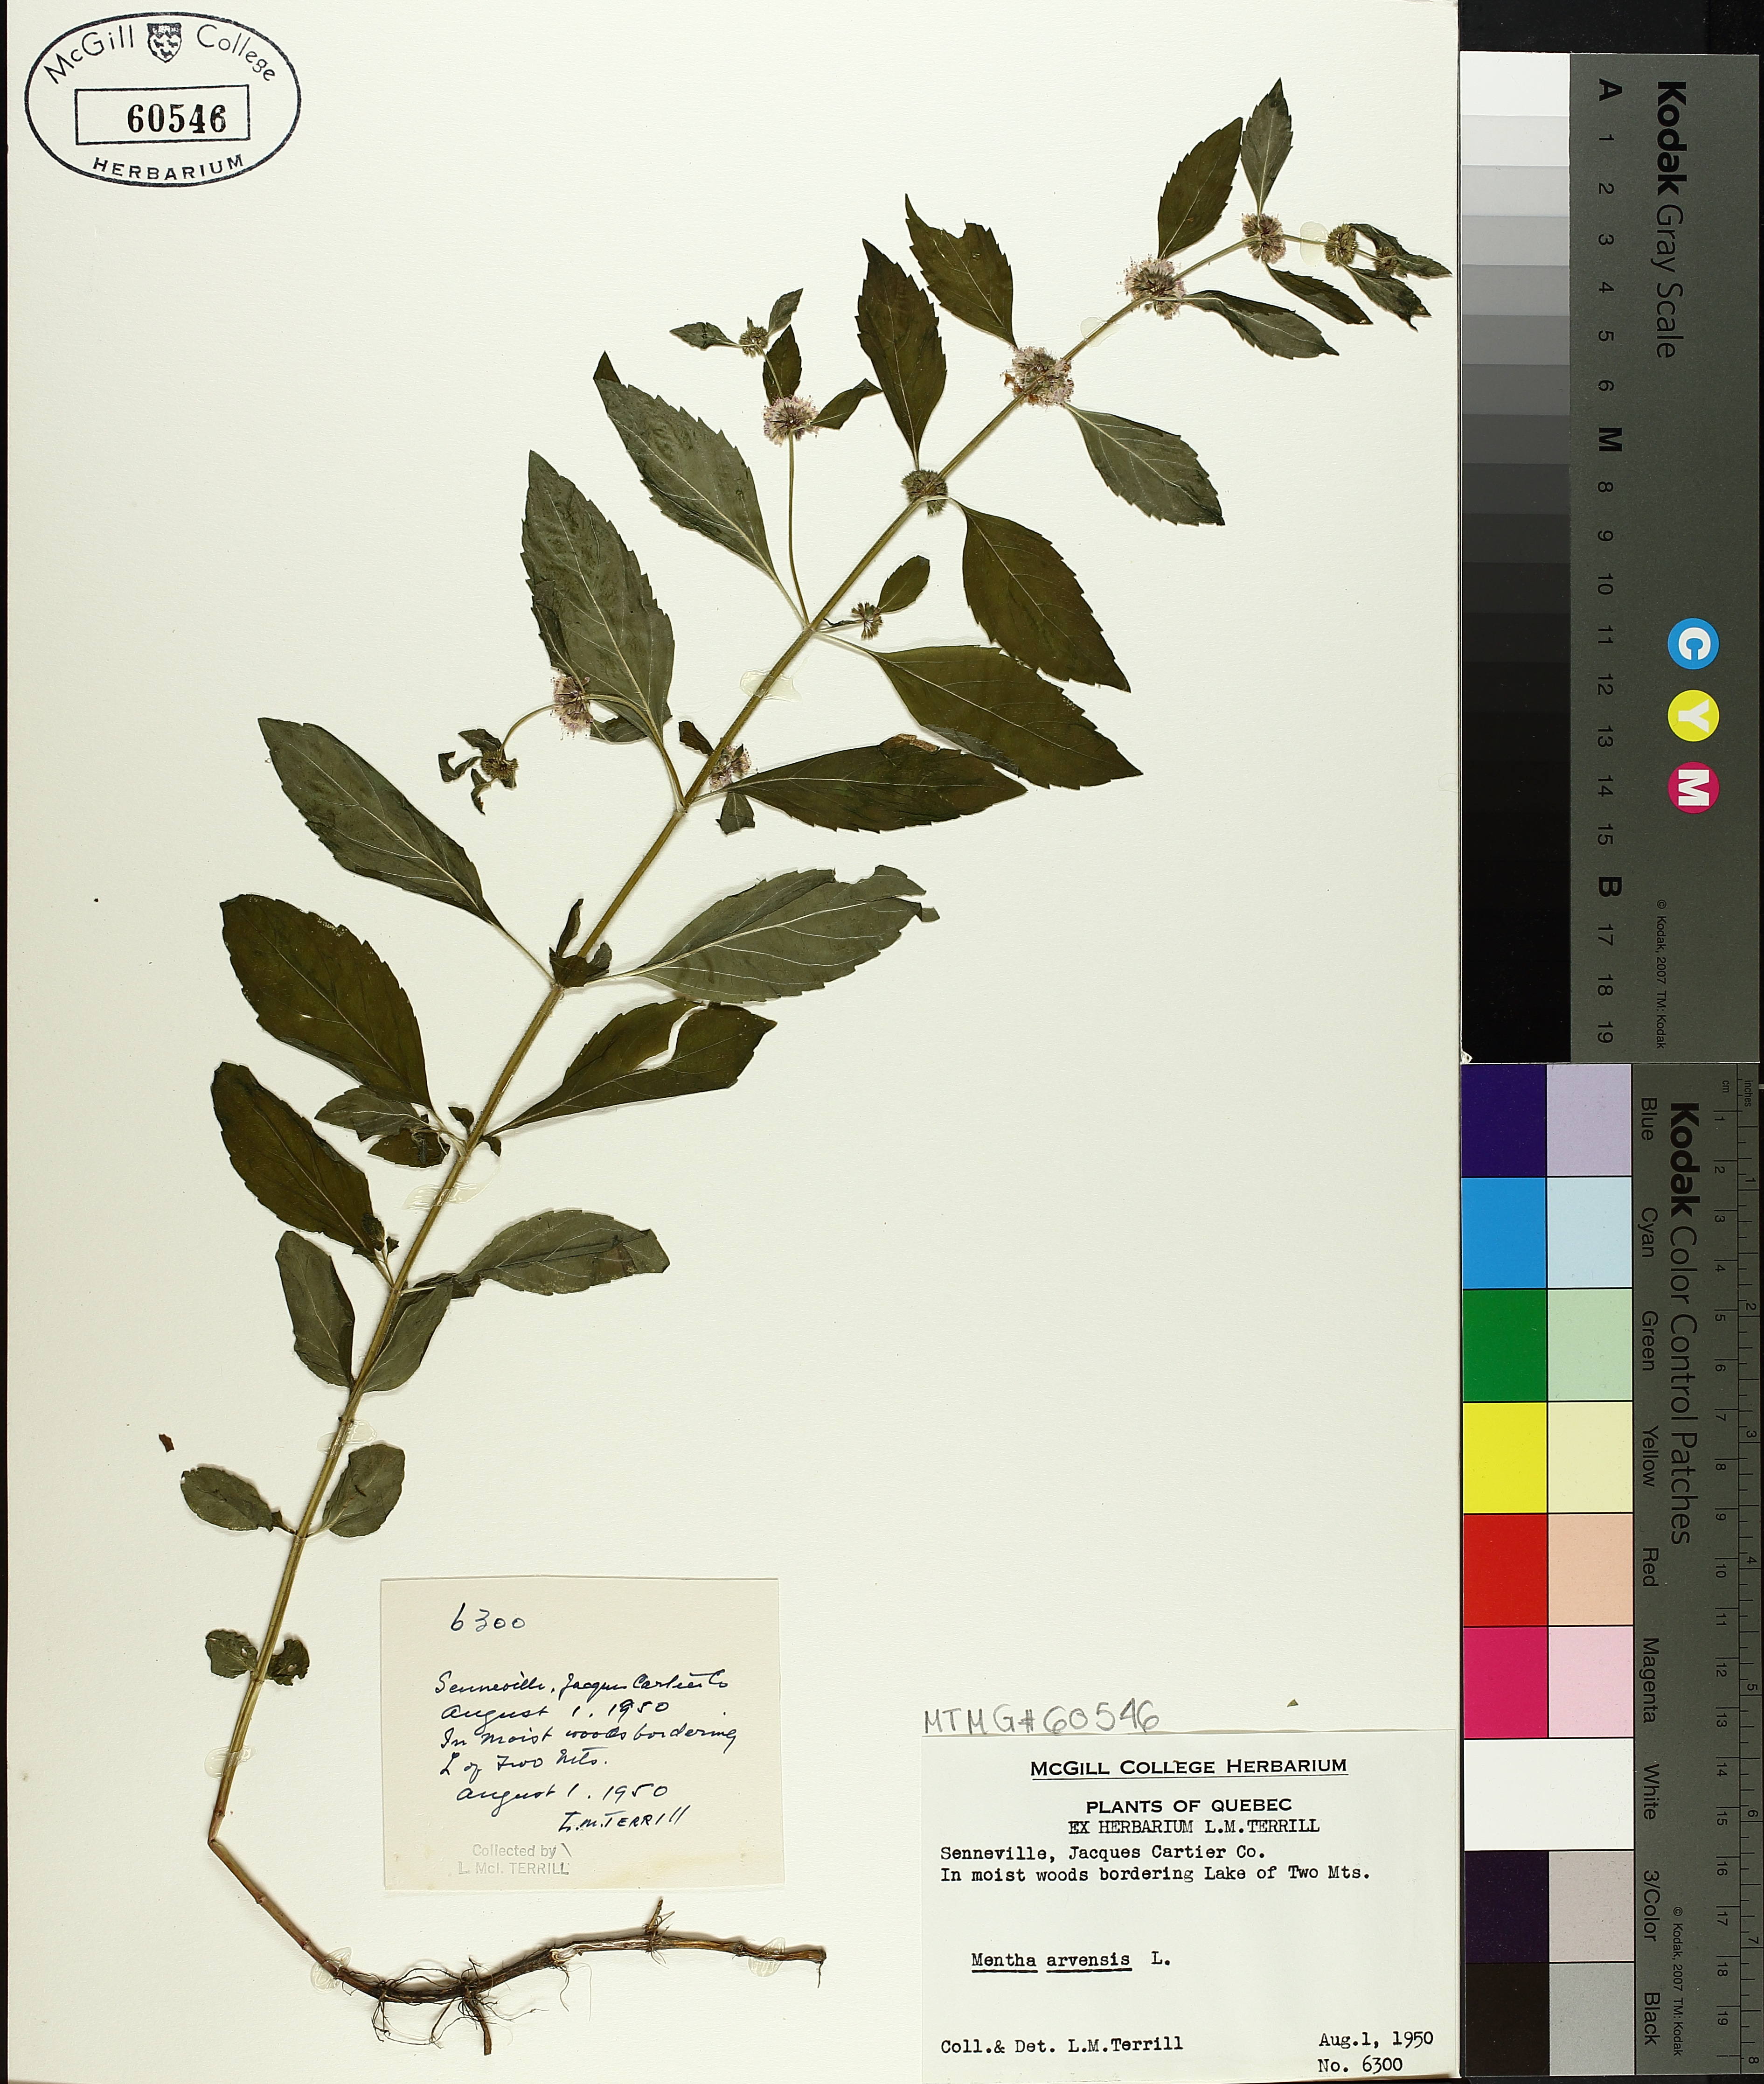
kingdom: Plantae
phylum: Tracheophyta
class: Magnoliopsida
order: Lamiales
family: Lamiaceae
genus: Mentha
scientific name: Mentha arvensis
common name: Corn mint
